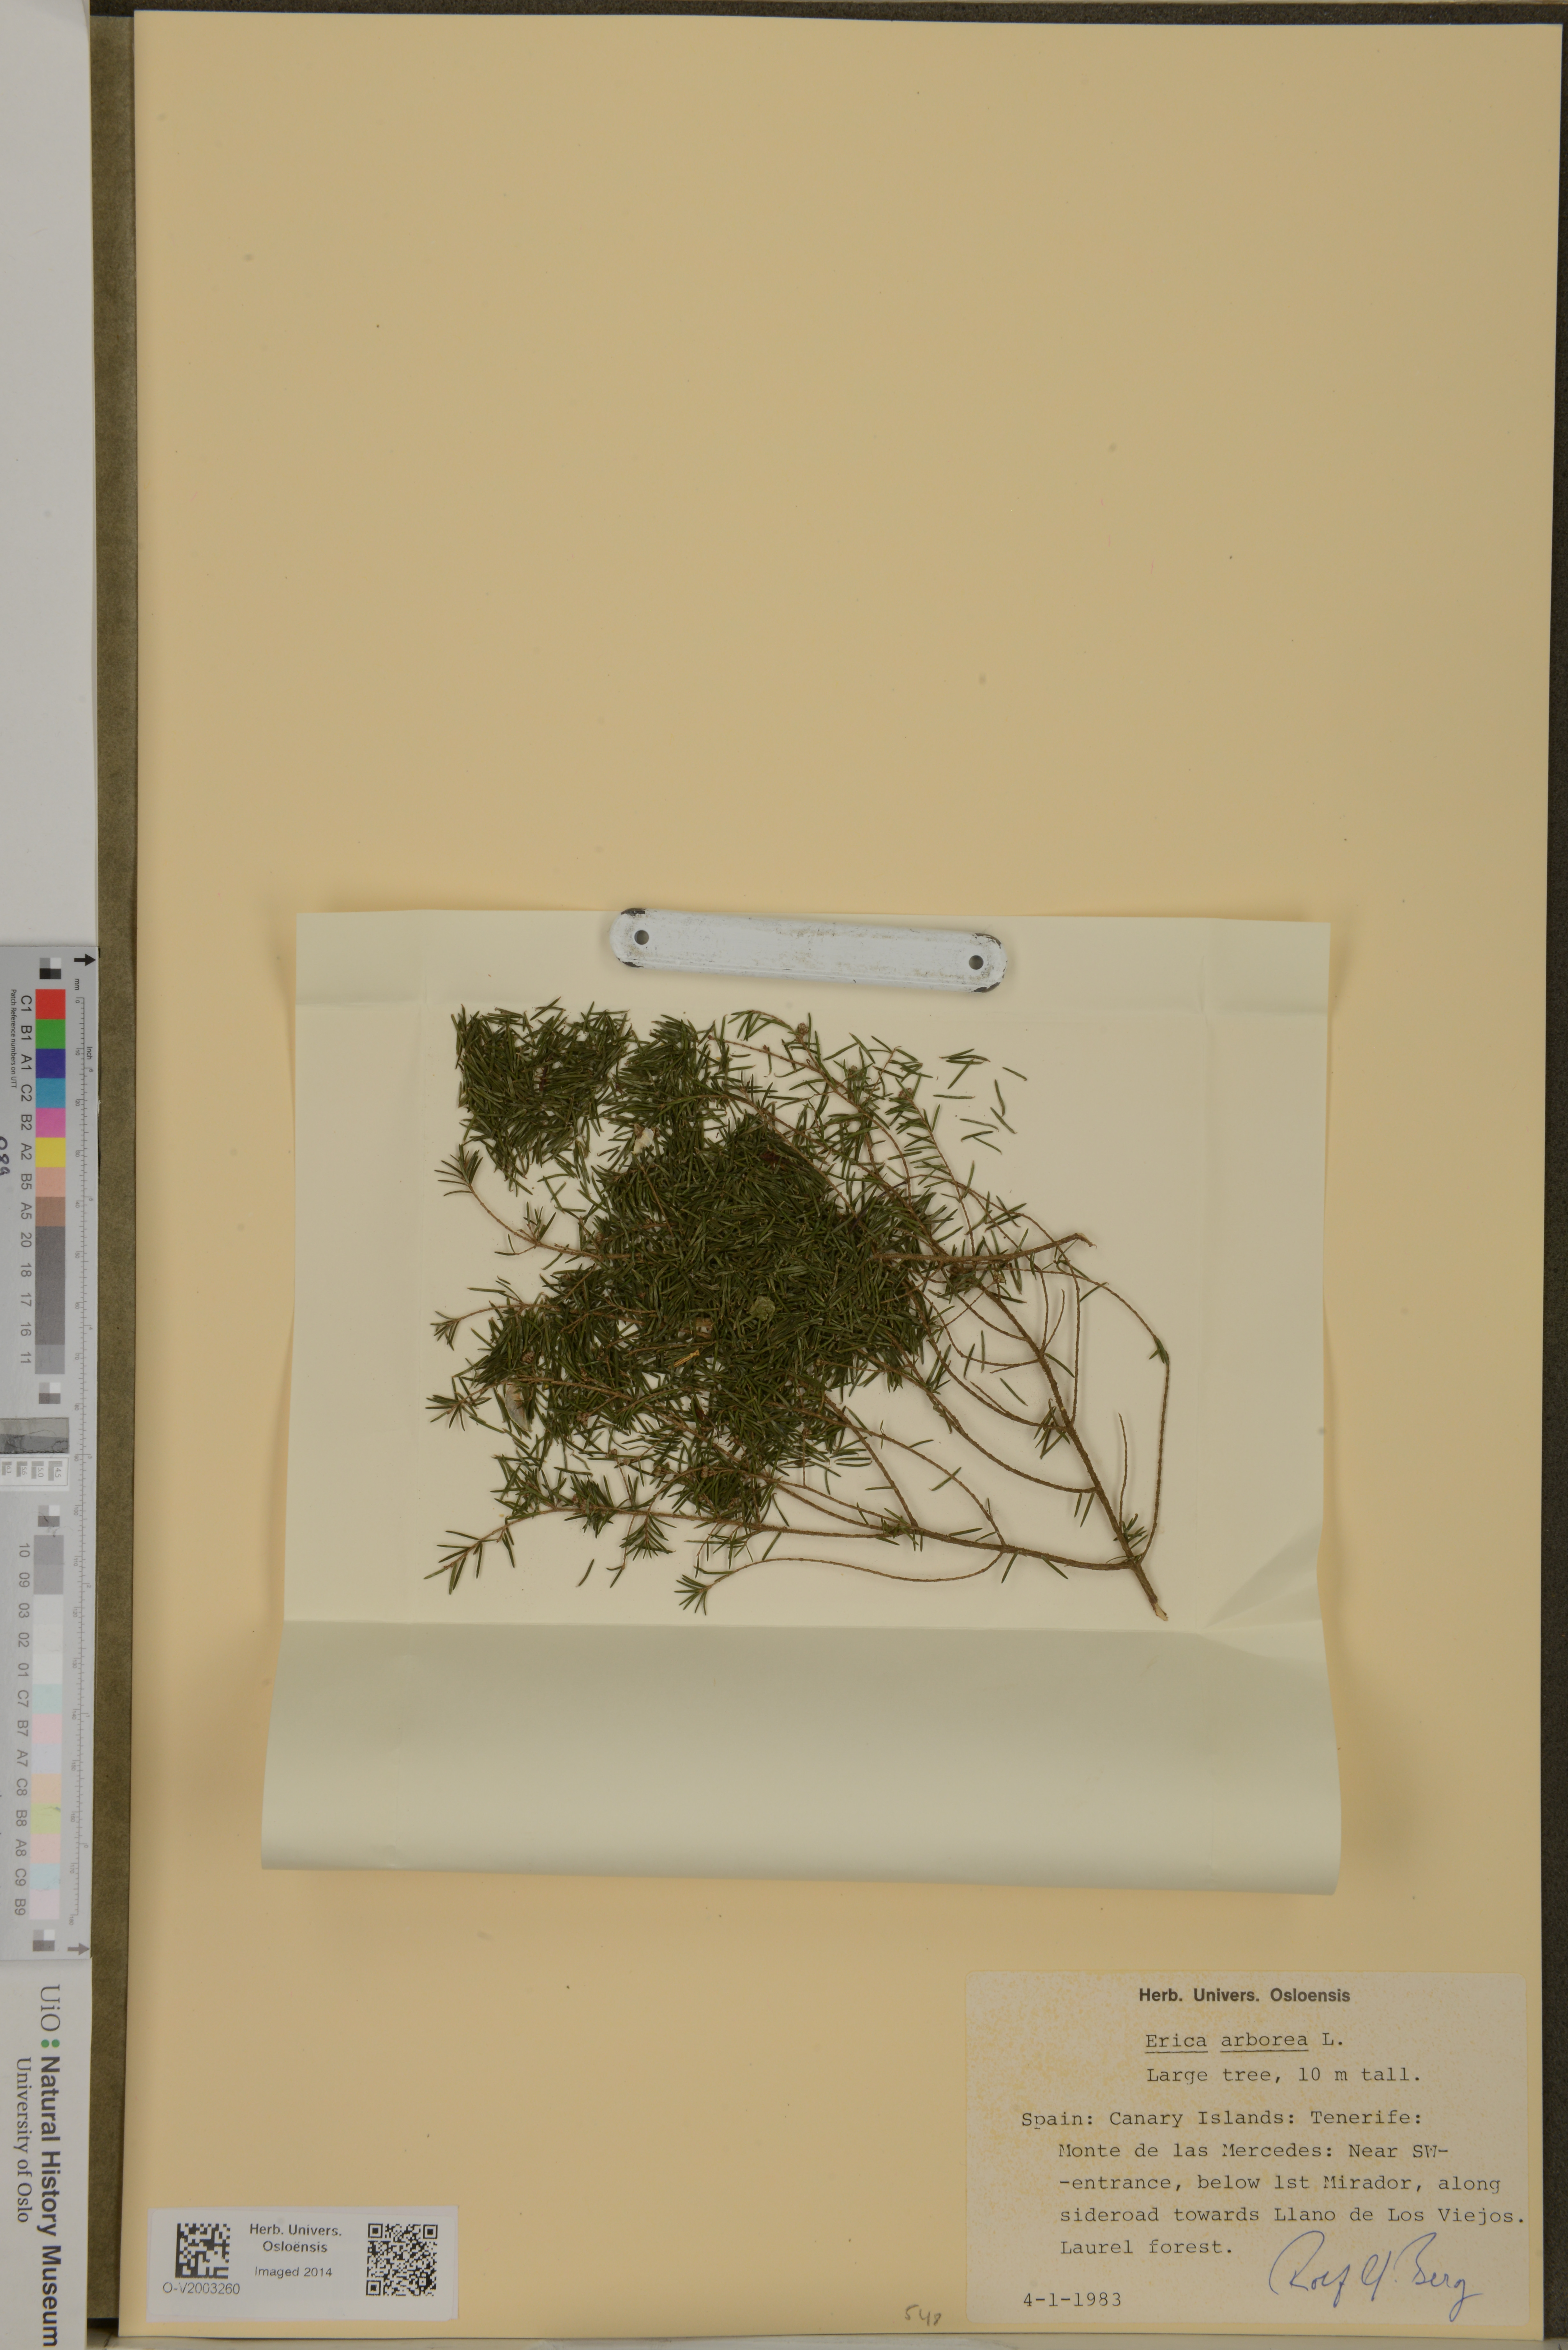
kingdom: Plantae
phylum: Tracheophyta
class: Magnoliopsida
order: Ericales
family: Ericaceae
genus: Erica
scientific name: Erica arborea
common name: Tree heath
